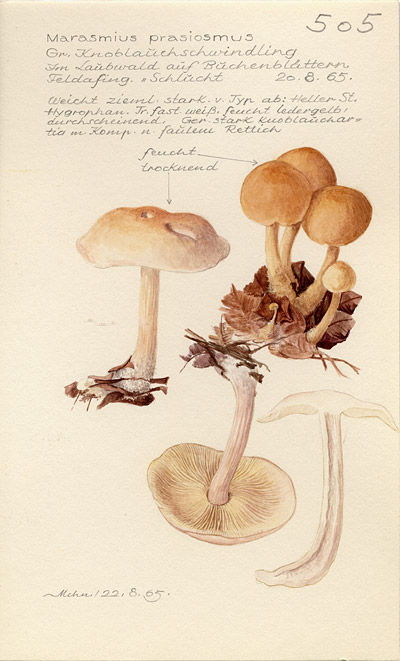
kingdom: Fungi
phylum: Basidiomycota
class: Agaricomycetes
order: Agaricales
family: Omphalotaceae
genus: Mycetinis
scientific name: Mycetinis prasiosmus
